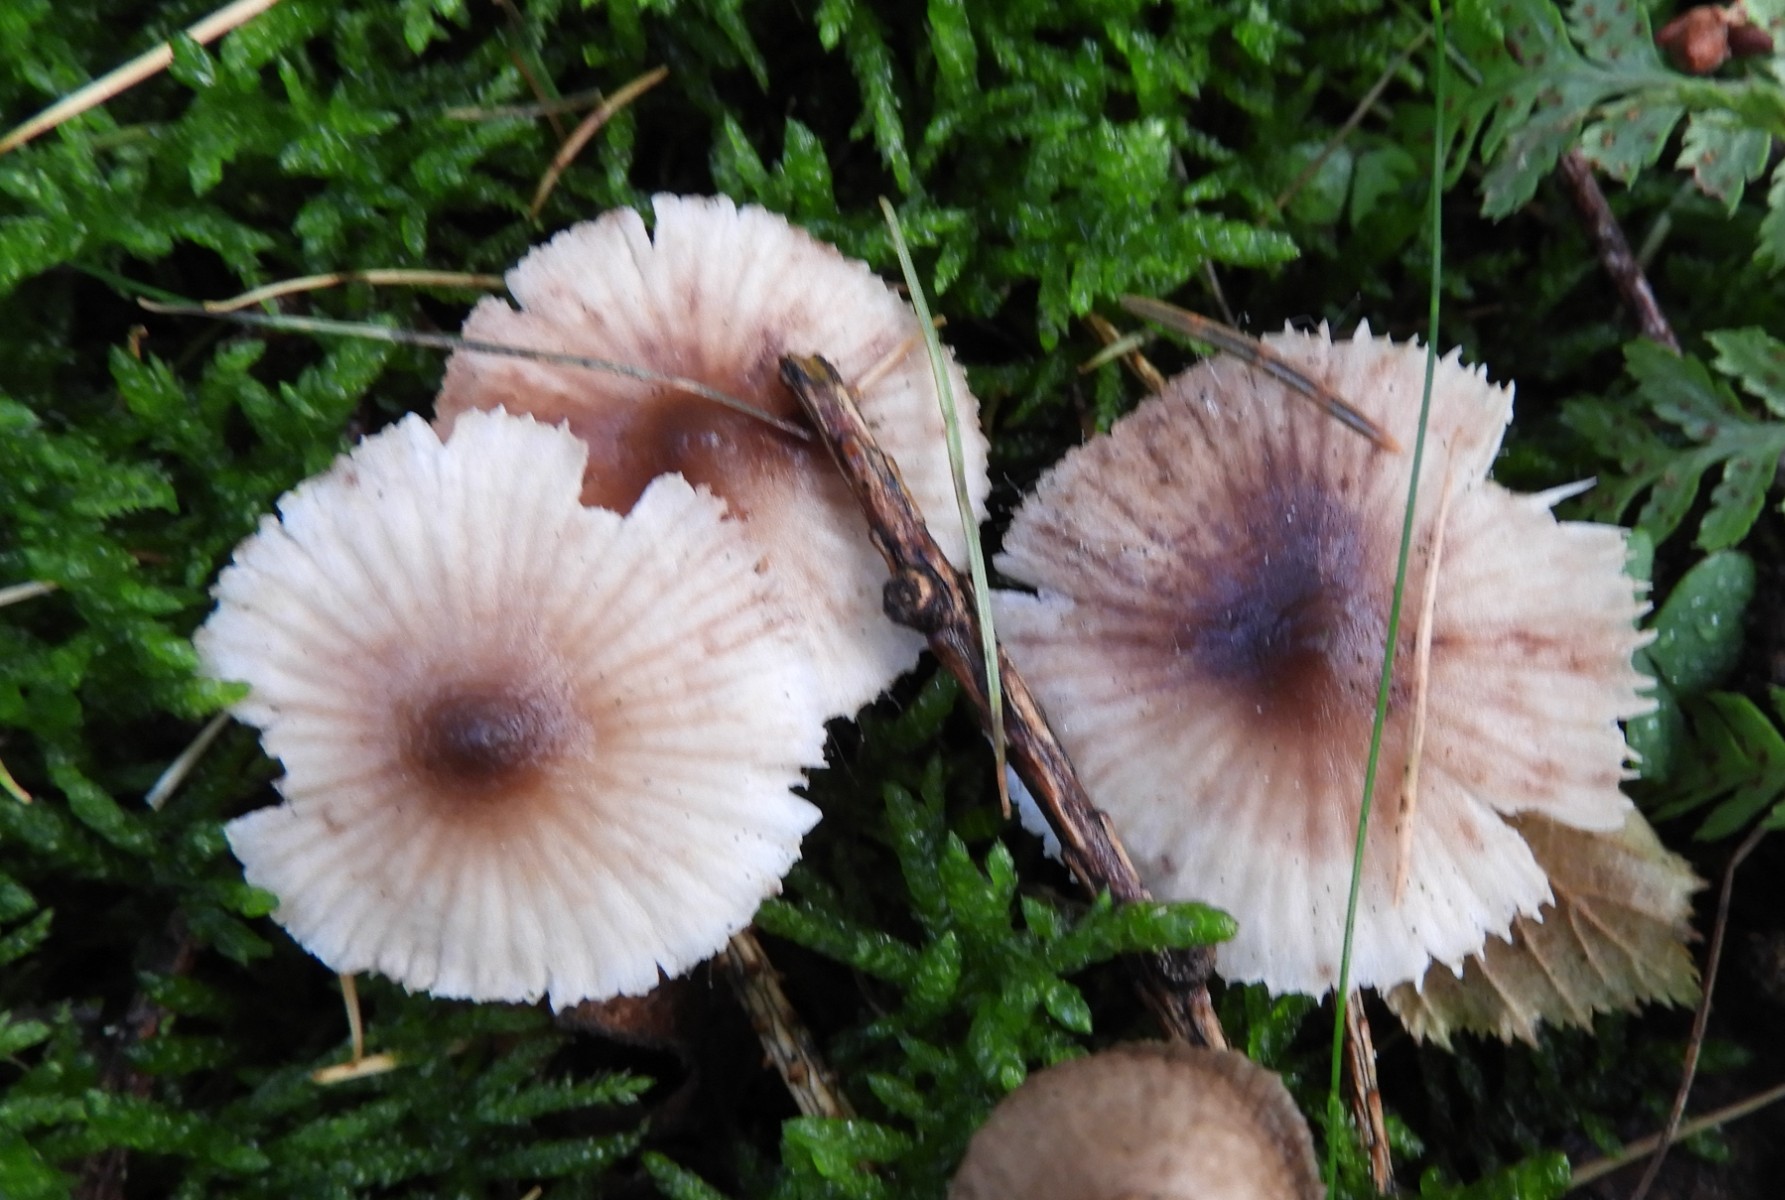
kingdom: Fungi
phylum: Basidiomycota
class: Agaricomycetes
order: Agaricales
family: Mycenaceae
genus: Mycena
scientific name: Mycena zephirus
